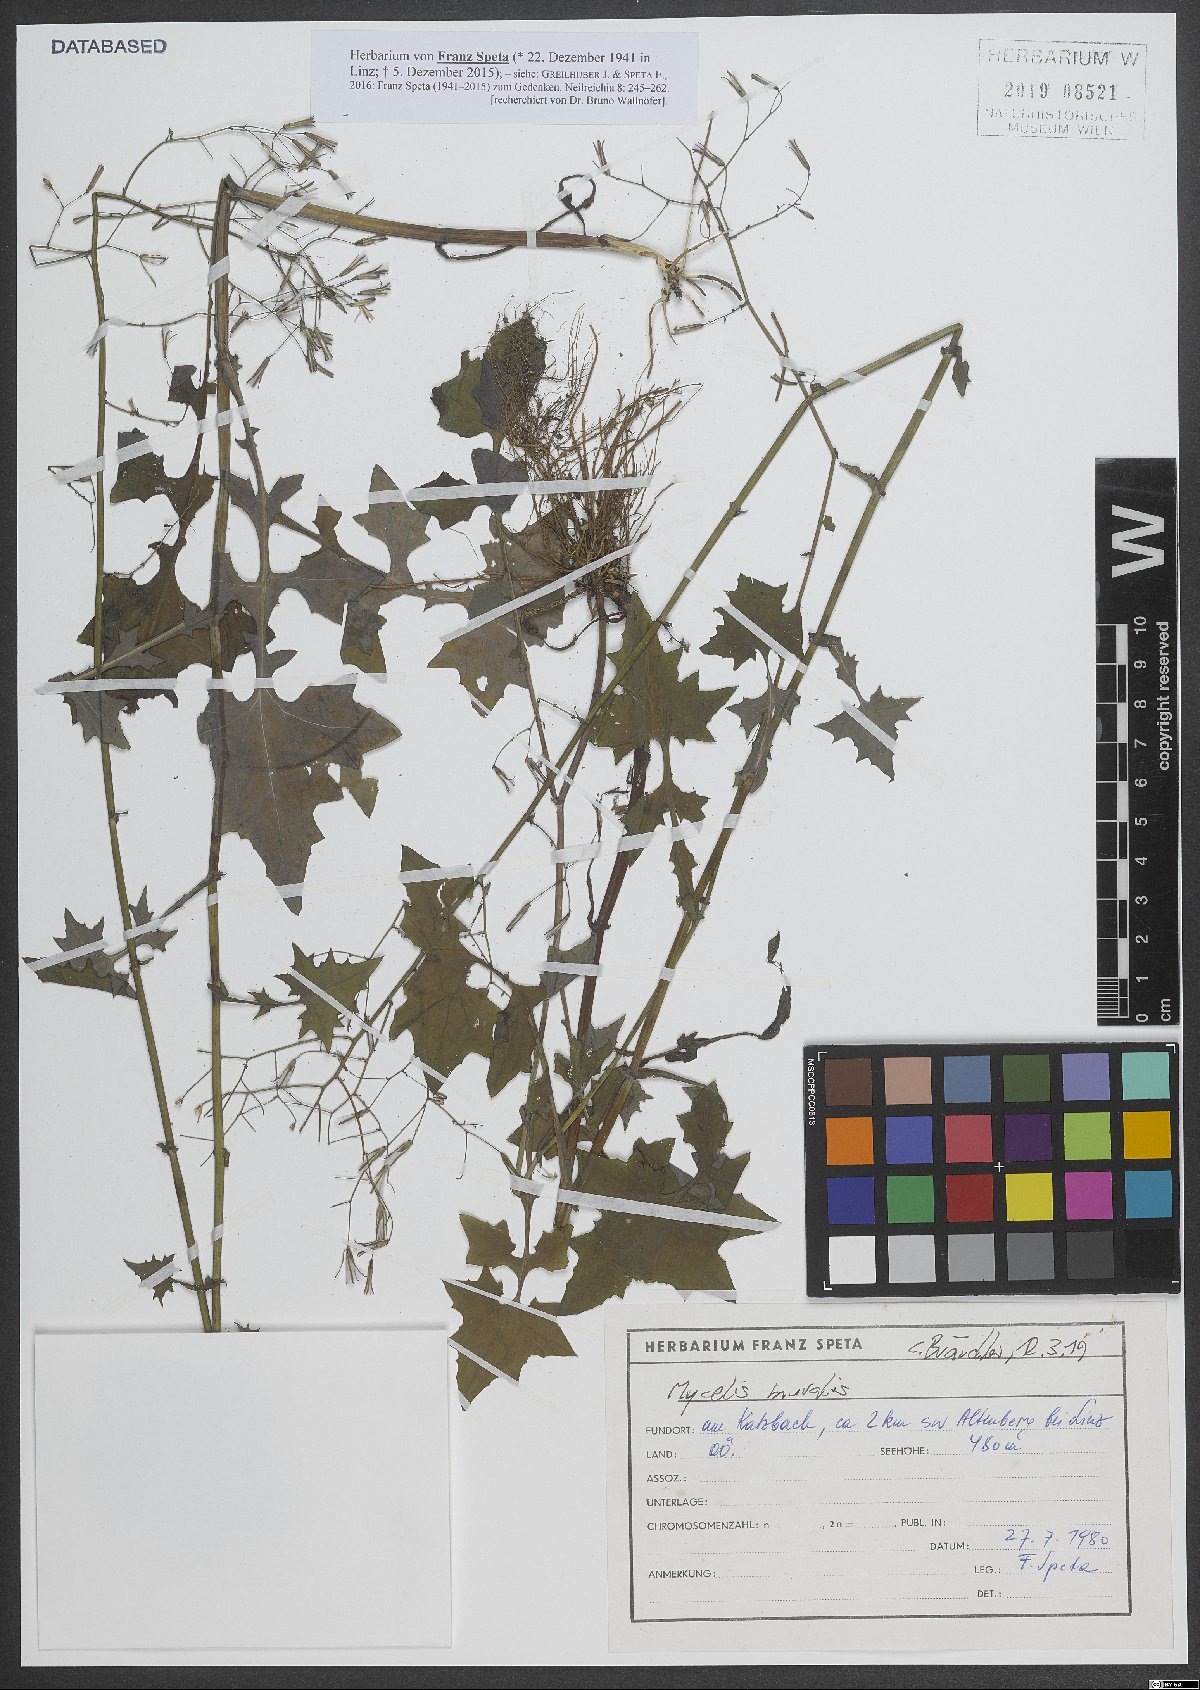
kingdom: Plantae
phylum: Tracheophyta
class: Magnoliopsida
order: Asterales
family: Asteraceae
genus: Mycelis
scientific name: Mycelis muralis
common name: Wall lettuce
